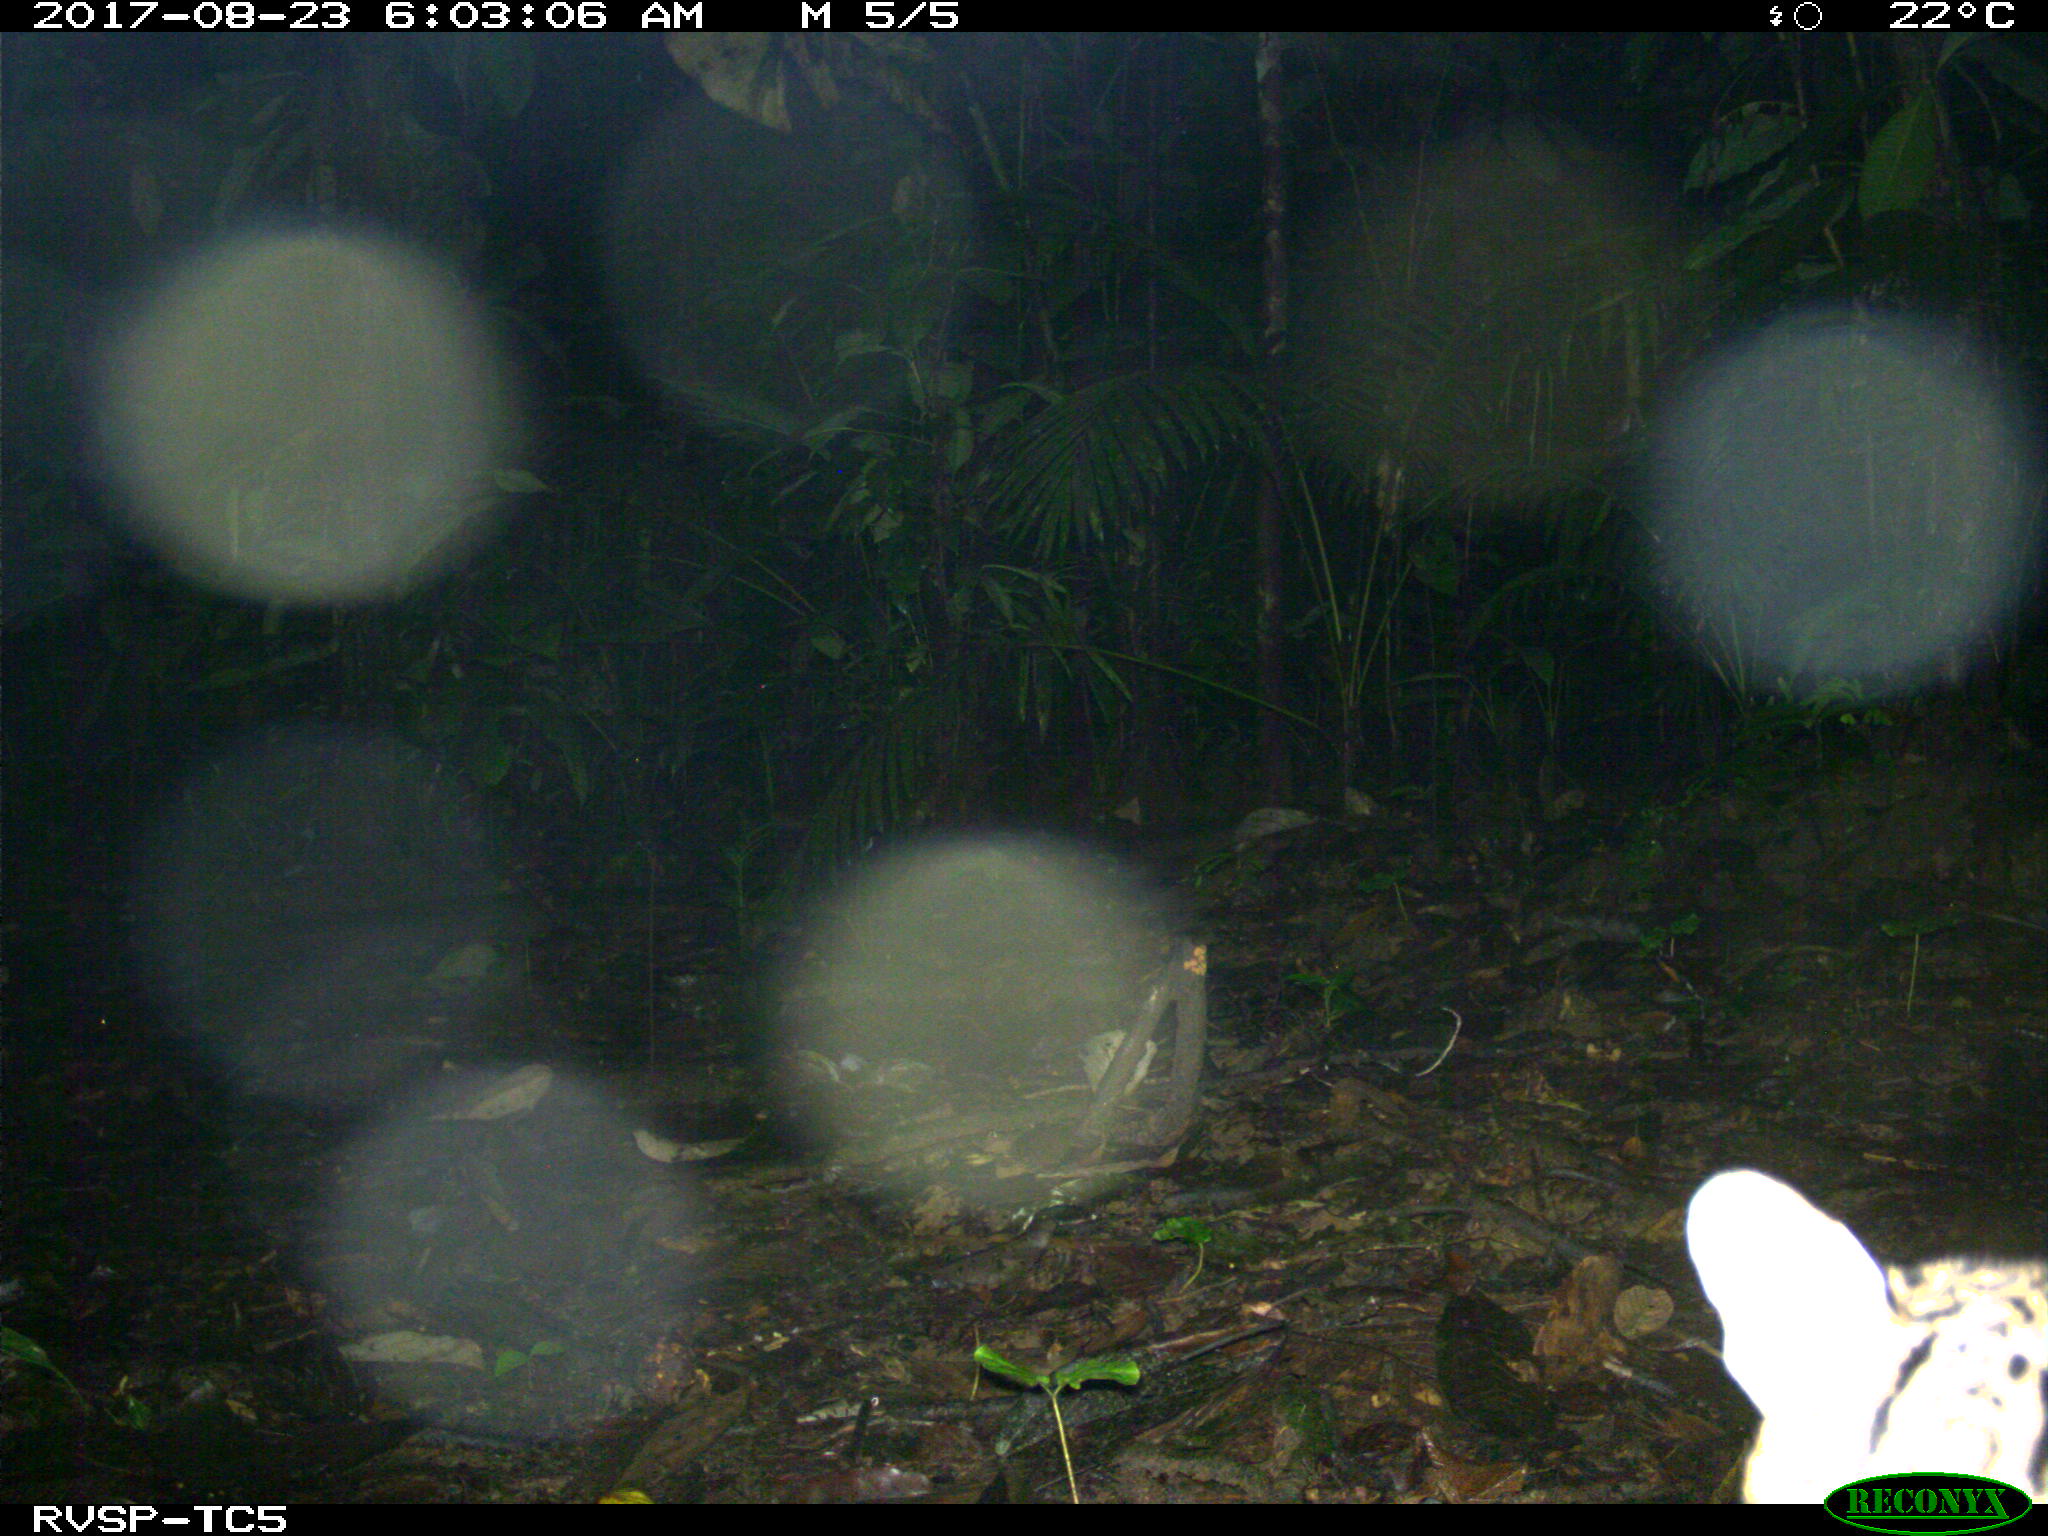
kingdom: Animalia
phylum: Chordata
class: Mammalia
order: Carnivora
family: Felidae
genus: Leopardus
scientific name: Leopardus pardalis
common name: Ocelot
